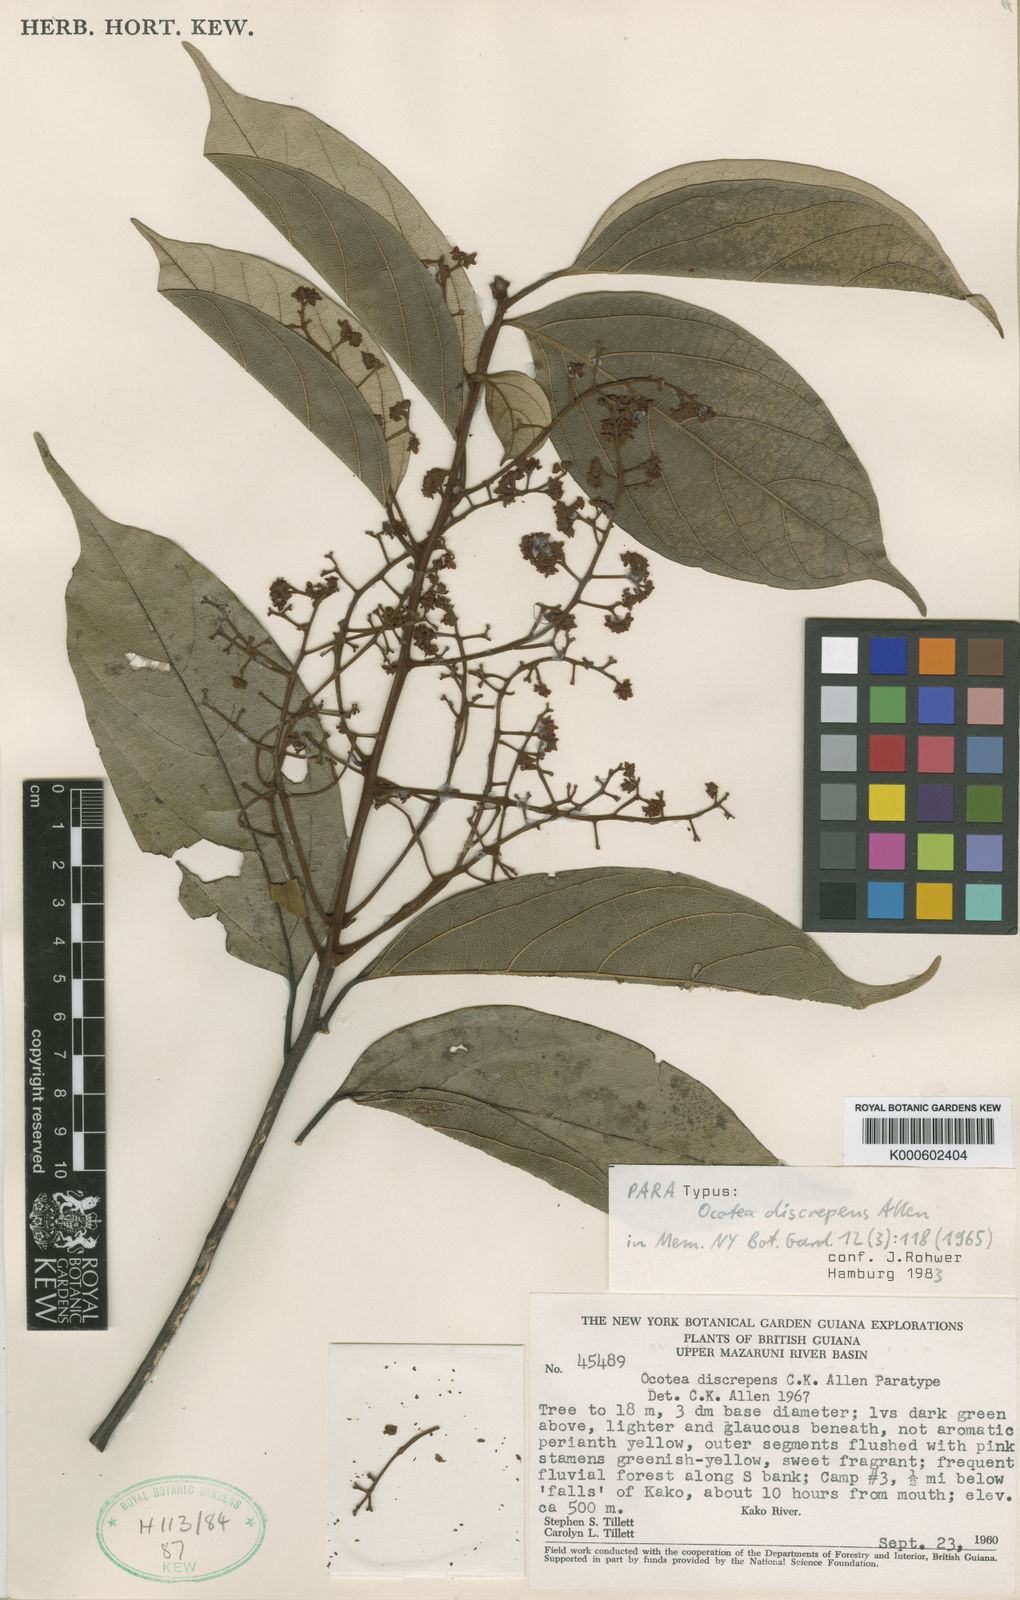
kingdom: Plantae
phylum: Tracheophyta
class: Magnoliopsida
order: Laurales
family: Lauraceae
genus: Ocotea
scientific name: Ocotea discrepens
